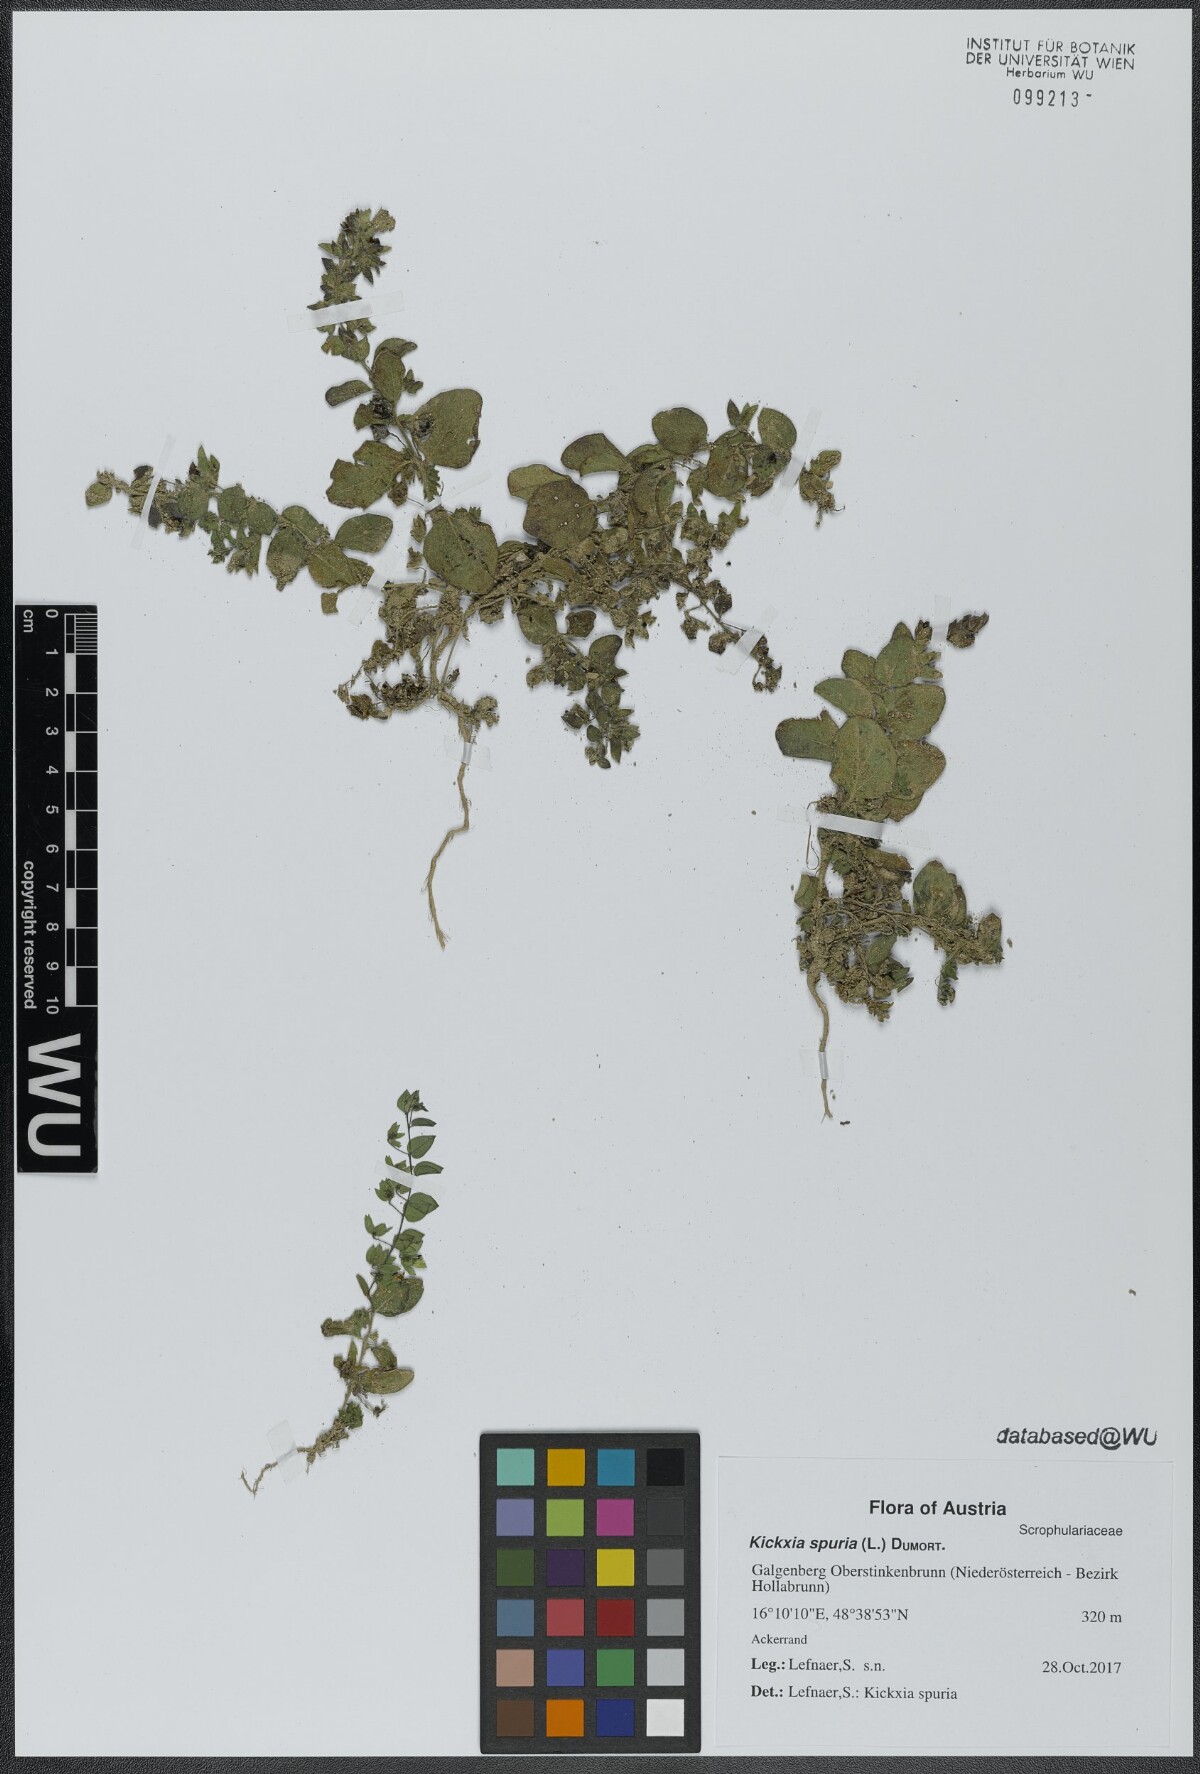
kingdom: Plantae
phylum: Tracheophyta
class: Magnoliopsida
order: Lamiales
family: Plantaginaceae
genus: Kickxia
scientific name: Kickxia spuria
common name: Round-leaved fluellen
